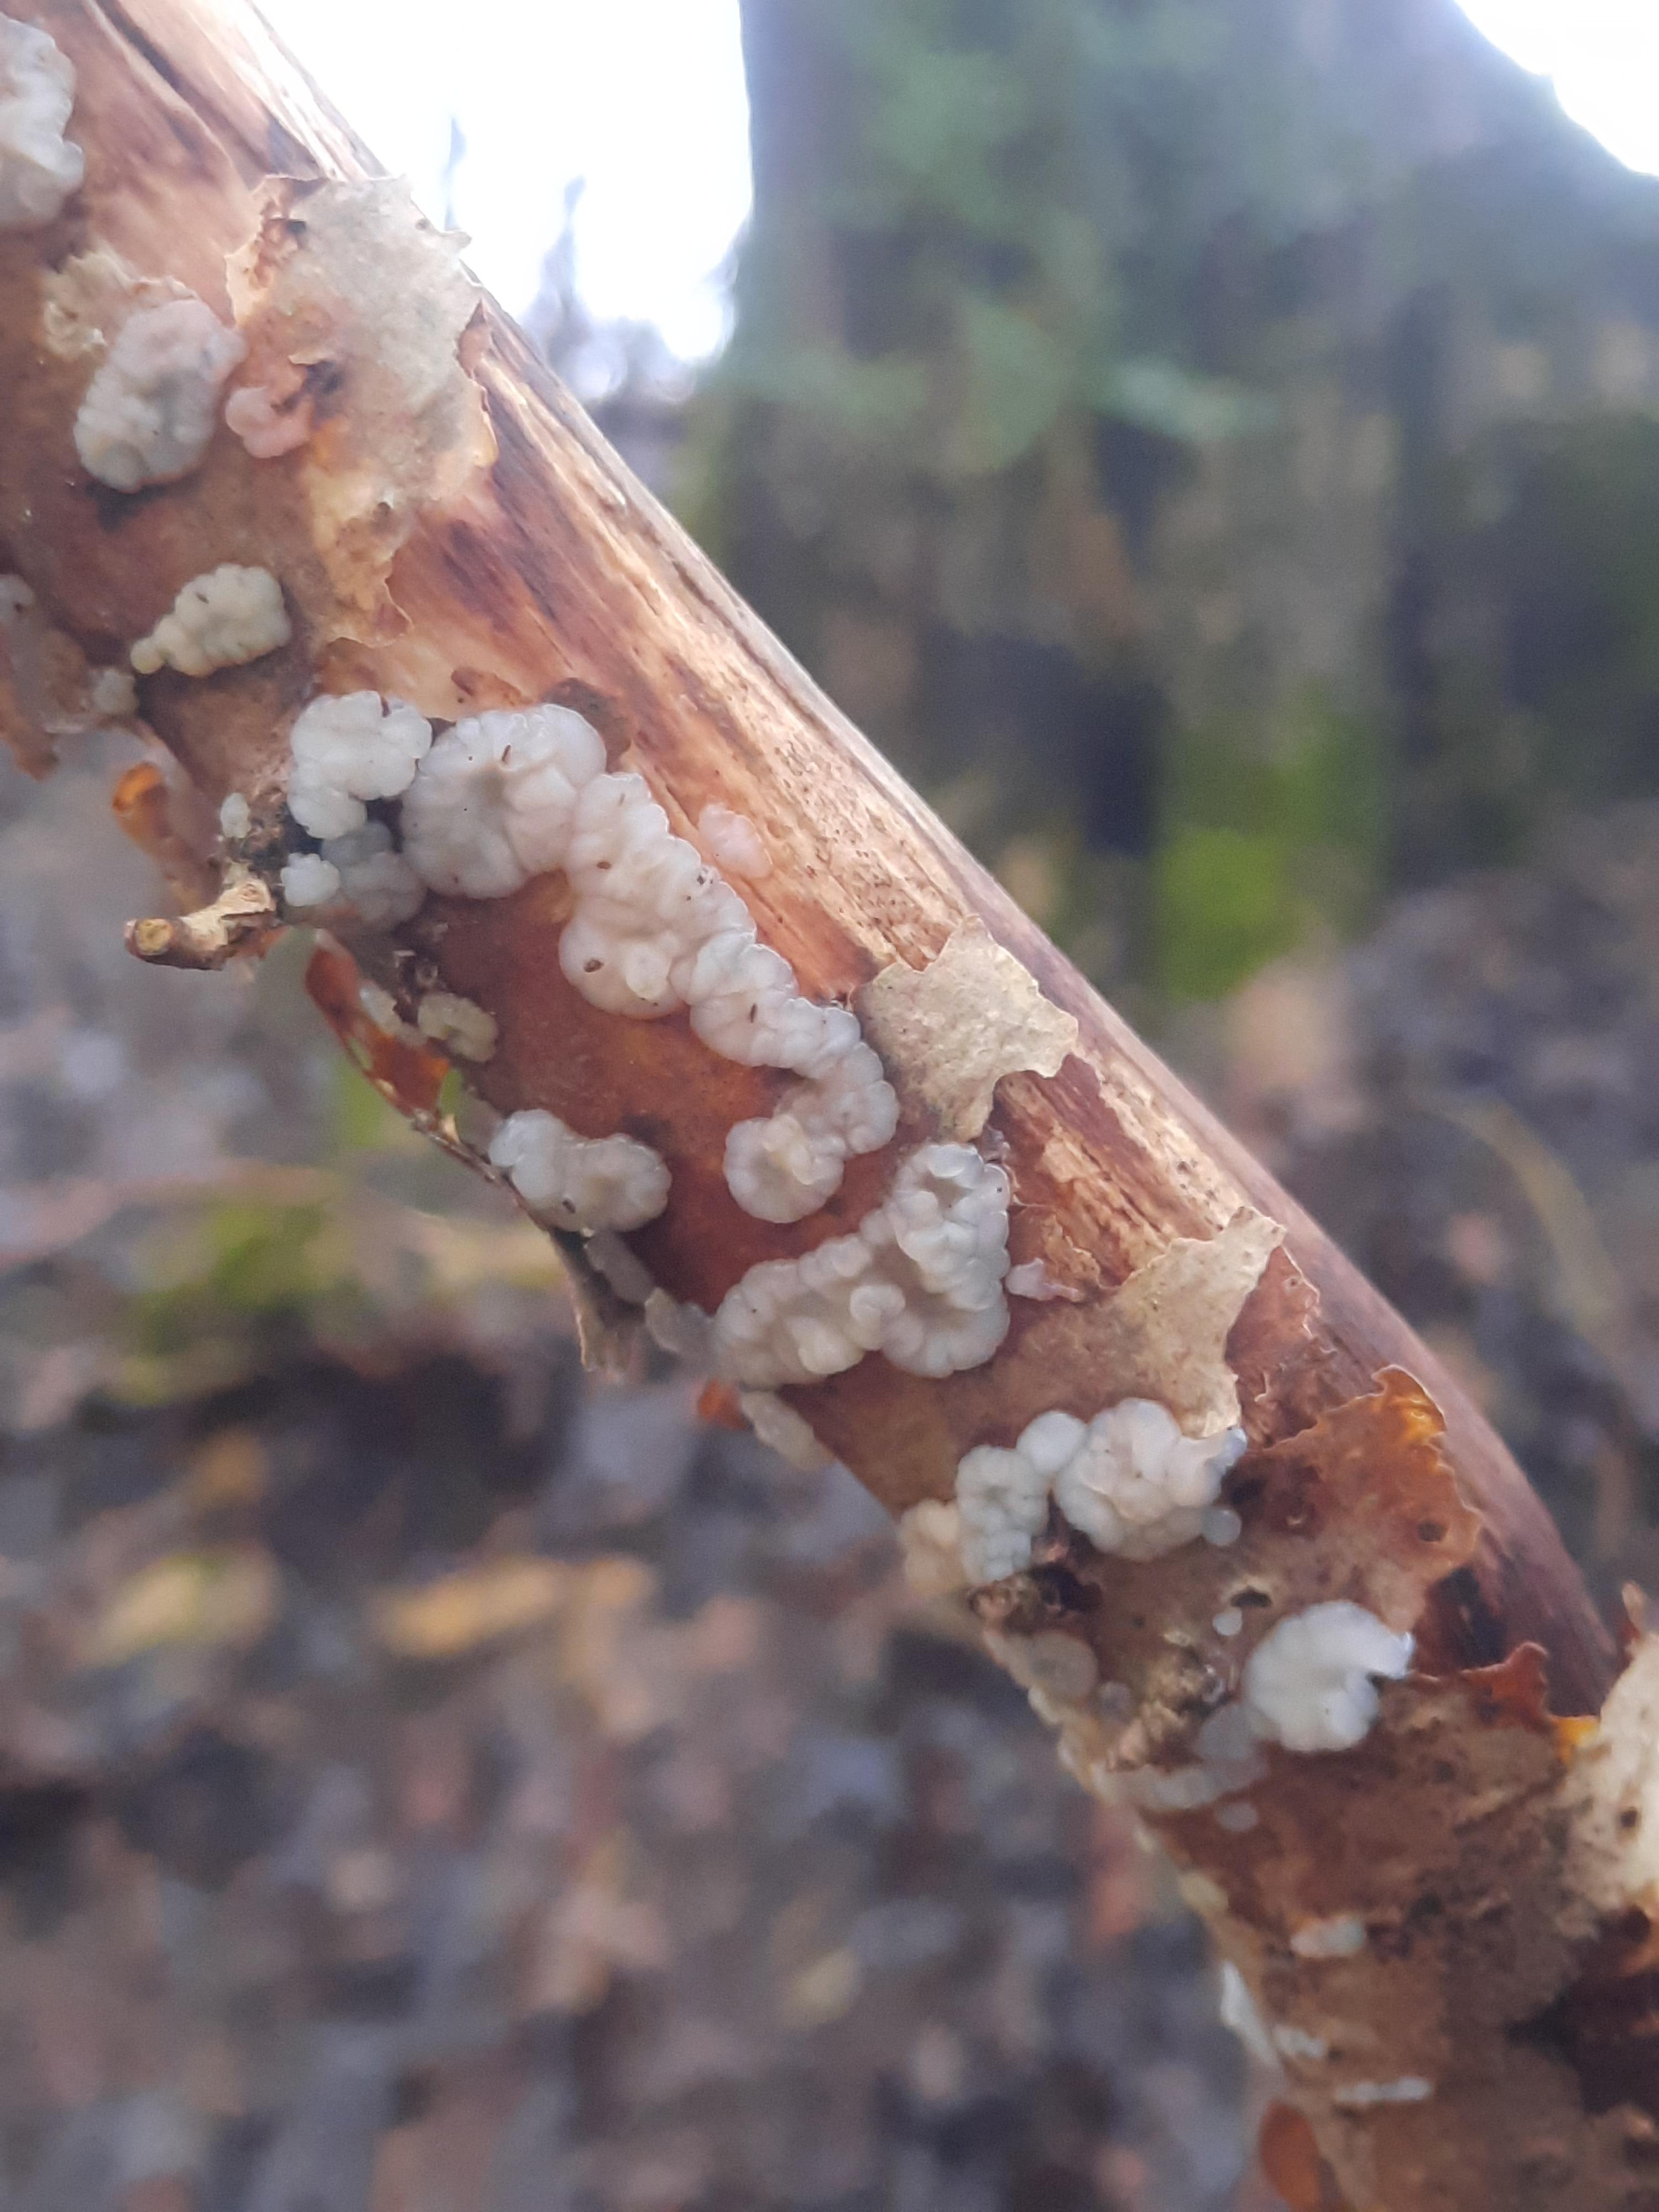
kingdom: Fungi
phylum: Basidiomycota
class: Agaricomycetes
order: Auriculariales
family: Auriculariaceae
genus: Exidia
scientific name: Exidia thuretiana
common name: hvidlig bævretop
